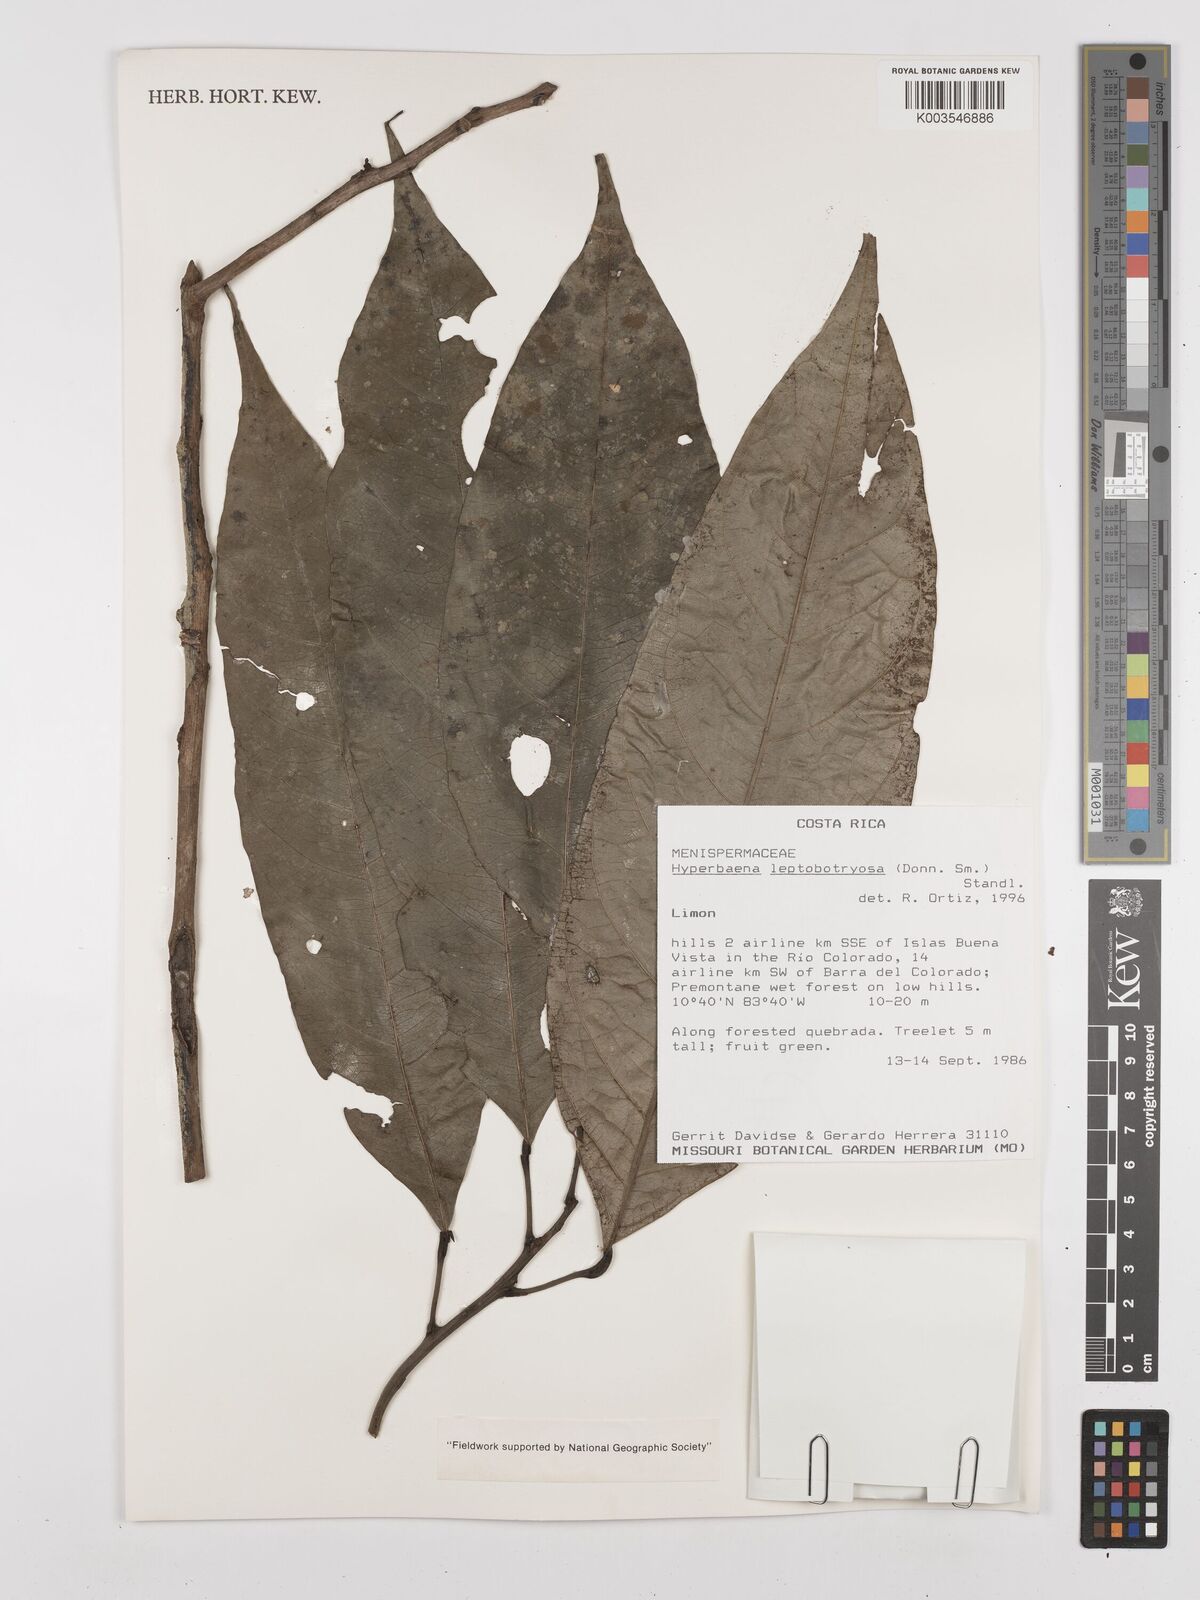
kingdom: Plantae
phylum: Tracheophyta
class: Magnoliopsida
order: Ranunculales
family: Menispermaceae
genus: Hyperbaena
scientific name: Hyperbaena leptobotryosa
